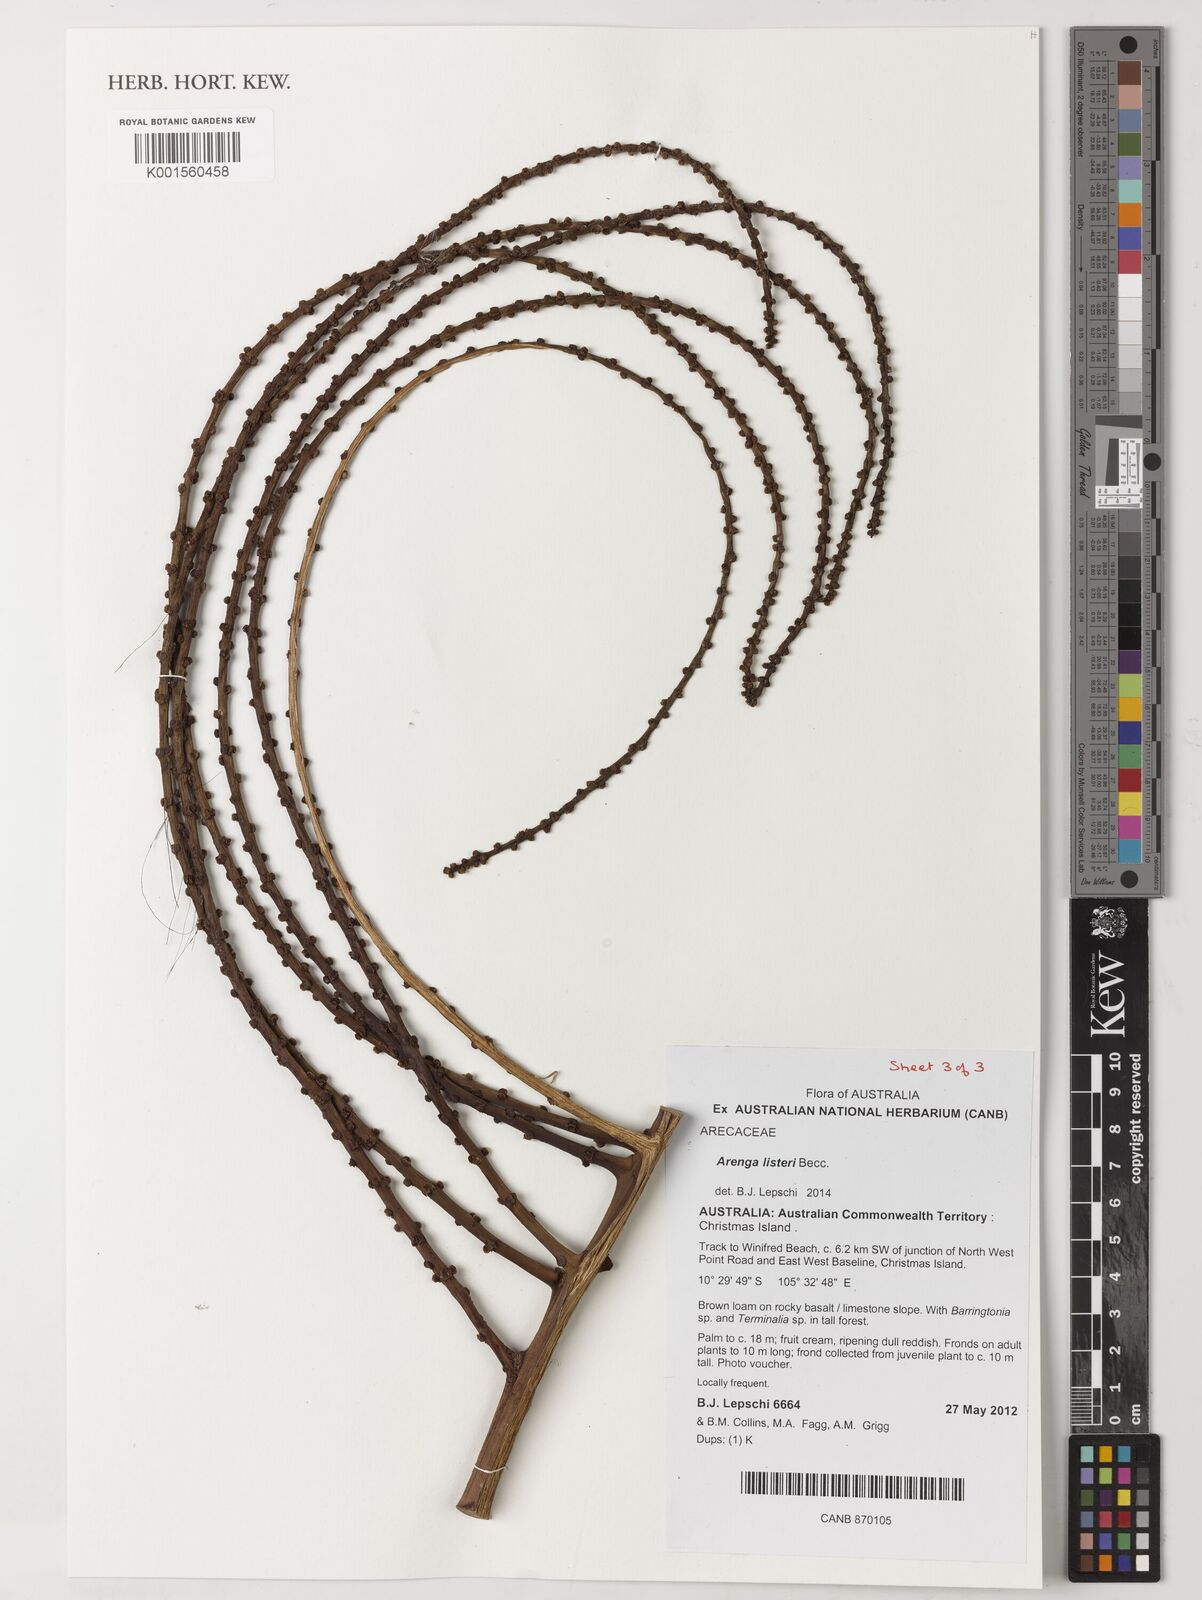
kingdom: Plantae
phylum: Tracheophyta
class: Liliopsida
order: Arecales
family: Arecaceae
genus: Arenga
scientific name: Arenga listeri
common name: Lister's palm
